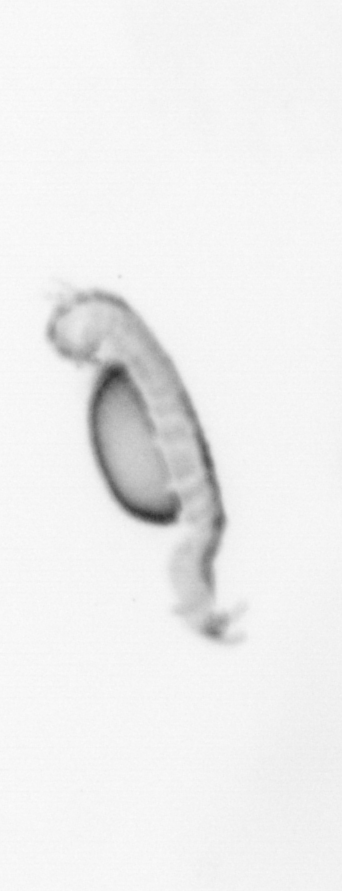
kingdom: Animalia
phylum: Annelida
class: Polychaeta
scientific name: Polychaeta
